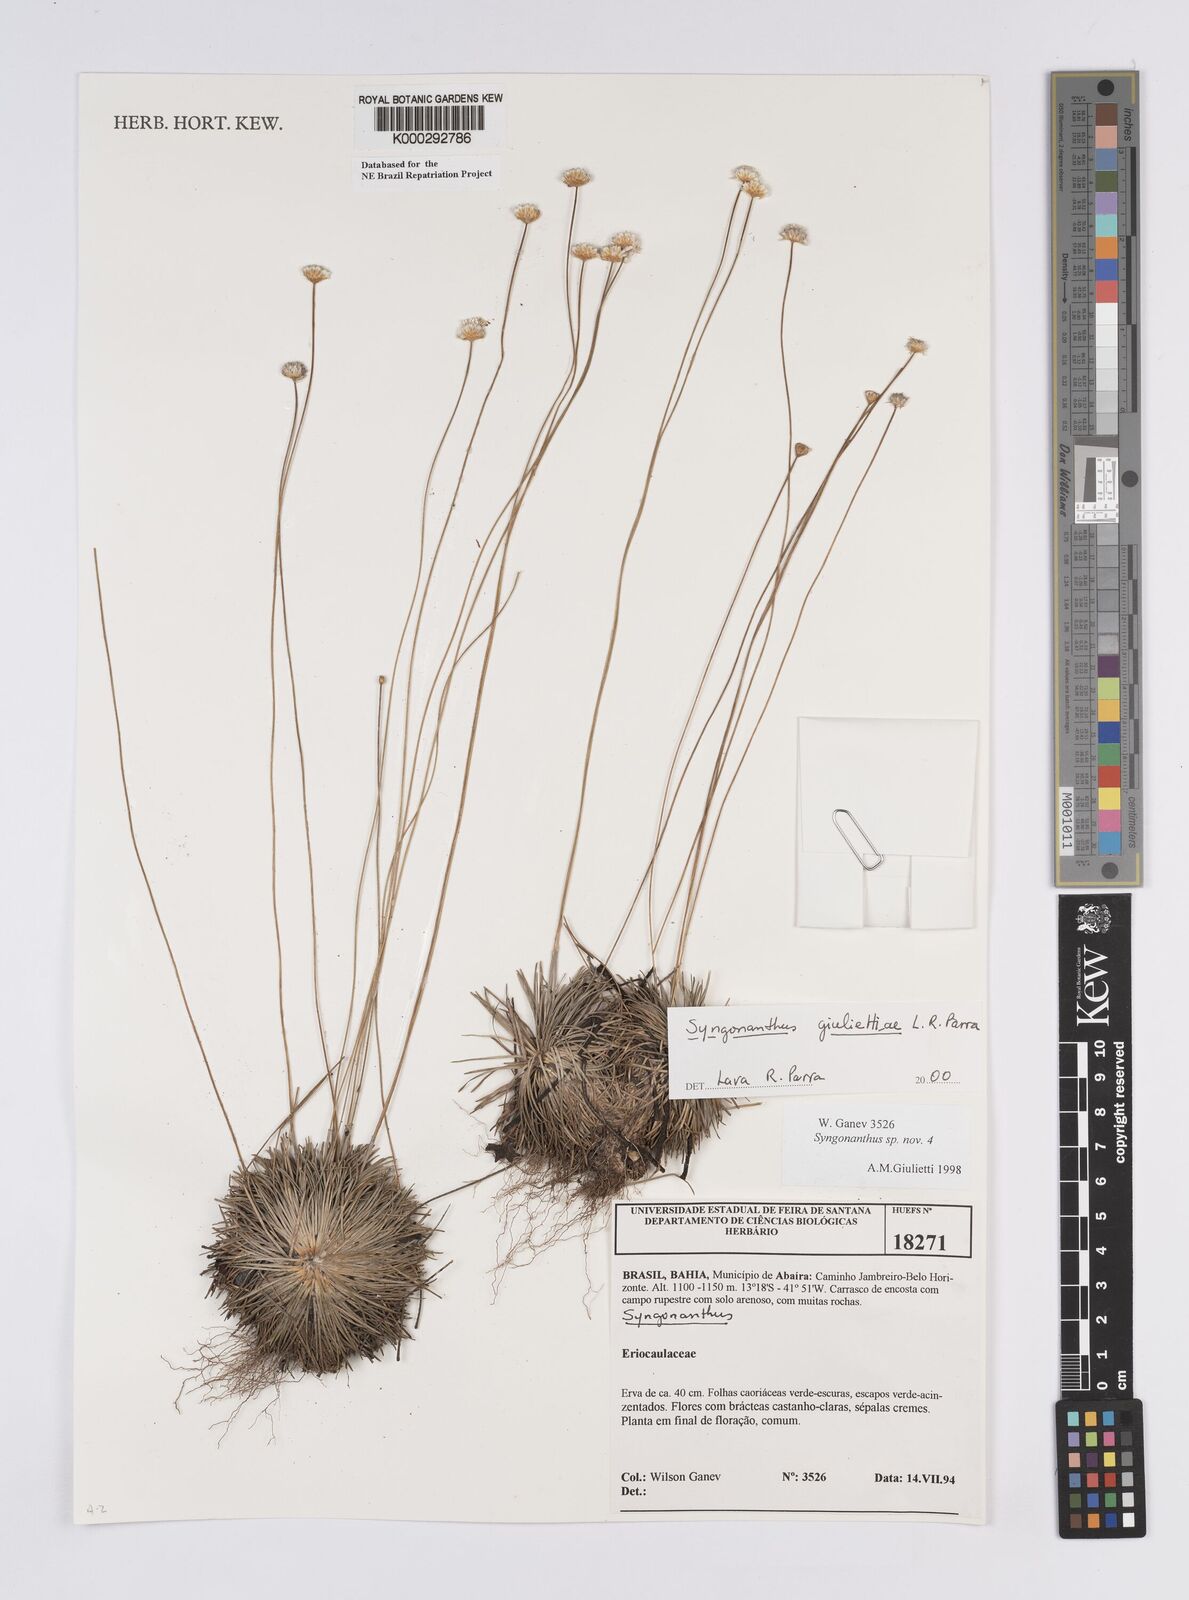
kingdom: Plantae
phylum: Tracheophyta
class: Liliopsida
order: Poales
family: Eriocaulaceae
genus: Syngonanthus
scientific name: Syngonanthus
